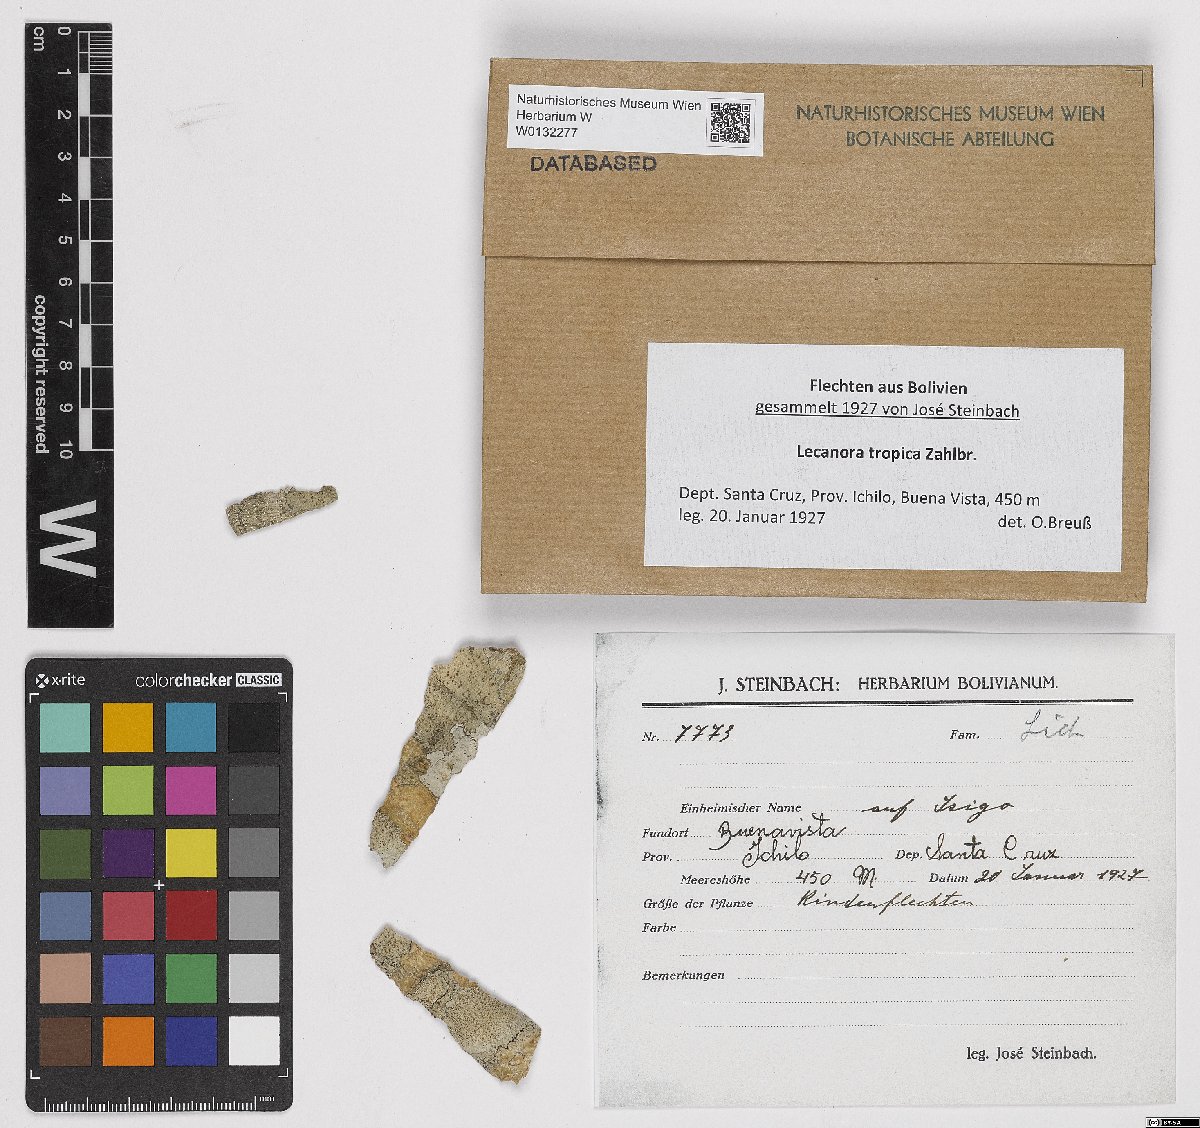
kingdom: Fungi
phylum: Ascomycota
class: Lecanoromycetes
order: Lecanorales
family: Lecanoraceae
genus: Lecanora
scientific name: Lecanora tropica
